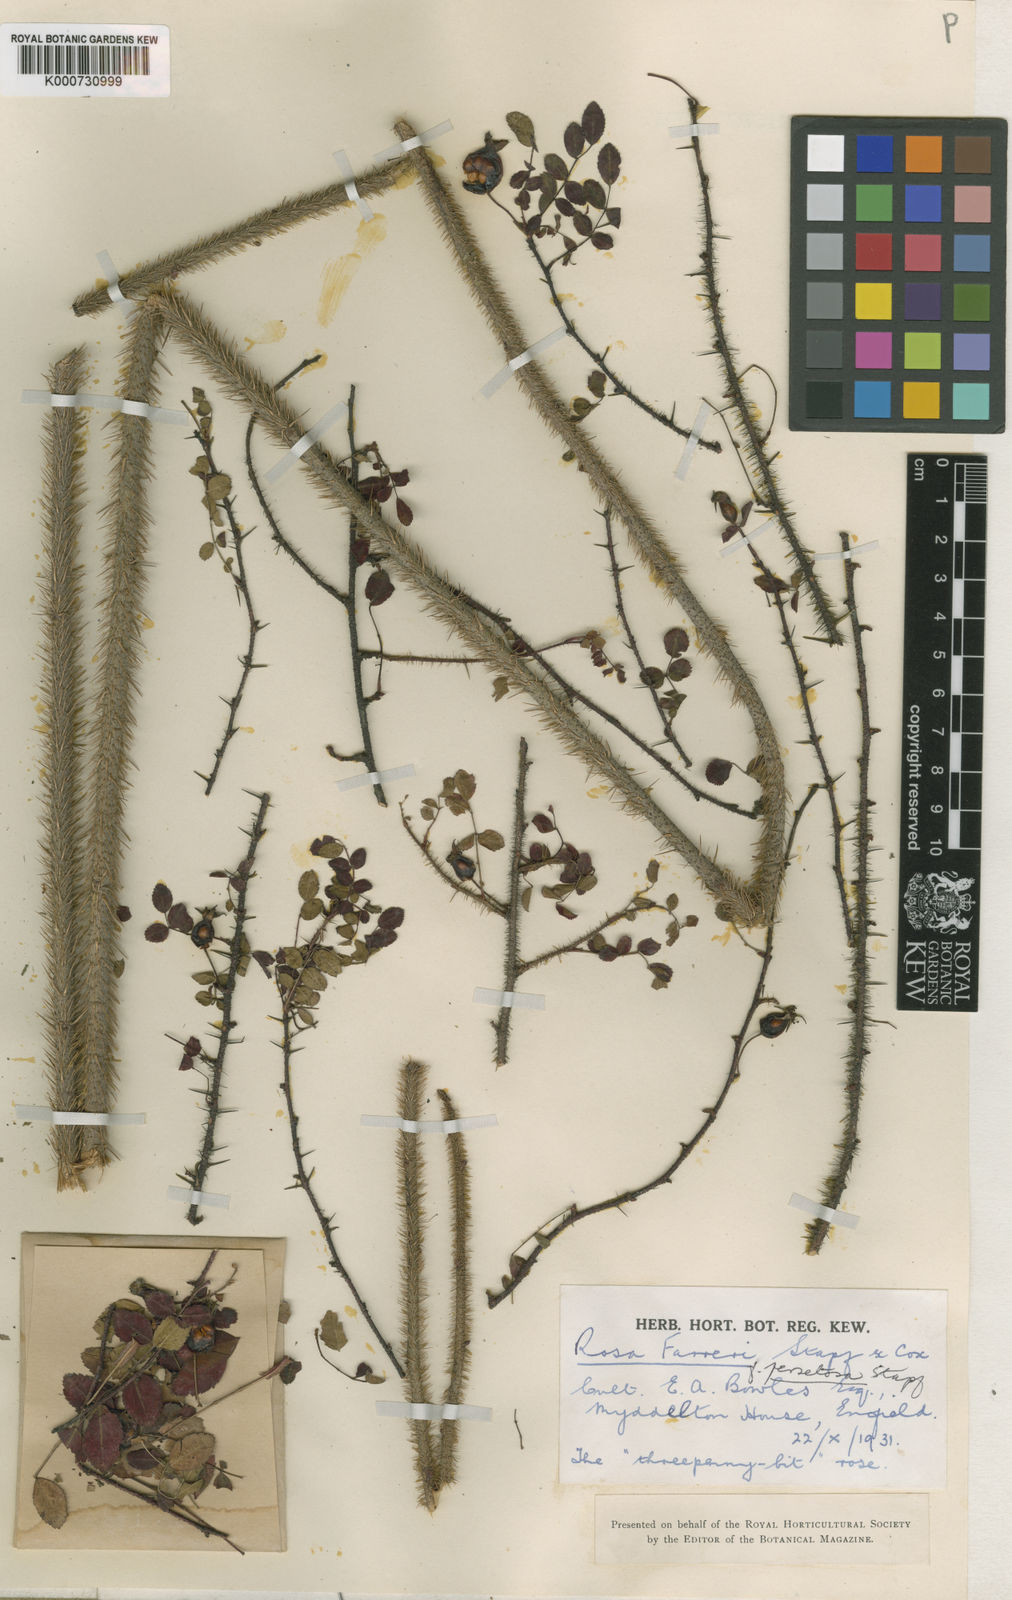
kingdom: Plantae
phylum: Tracheophyta
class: Magnoliopsida
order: Rosales
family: Rosaceae
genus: Rosa
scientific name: Rosa farreri
